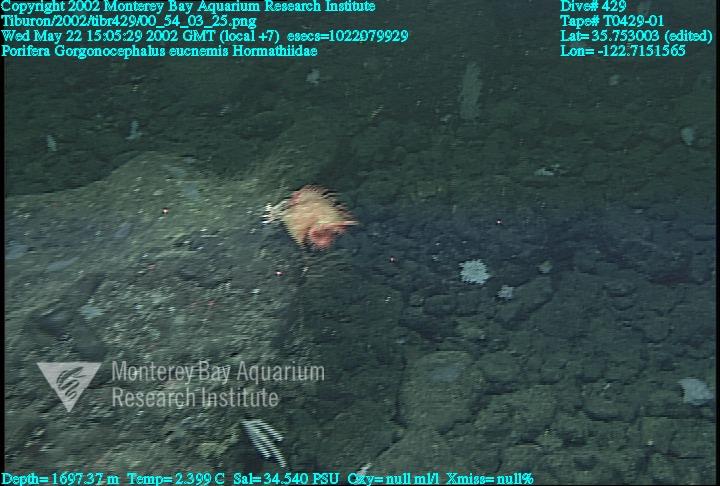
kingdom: Animalia
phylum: Porifera
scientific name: Porifera
